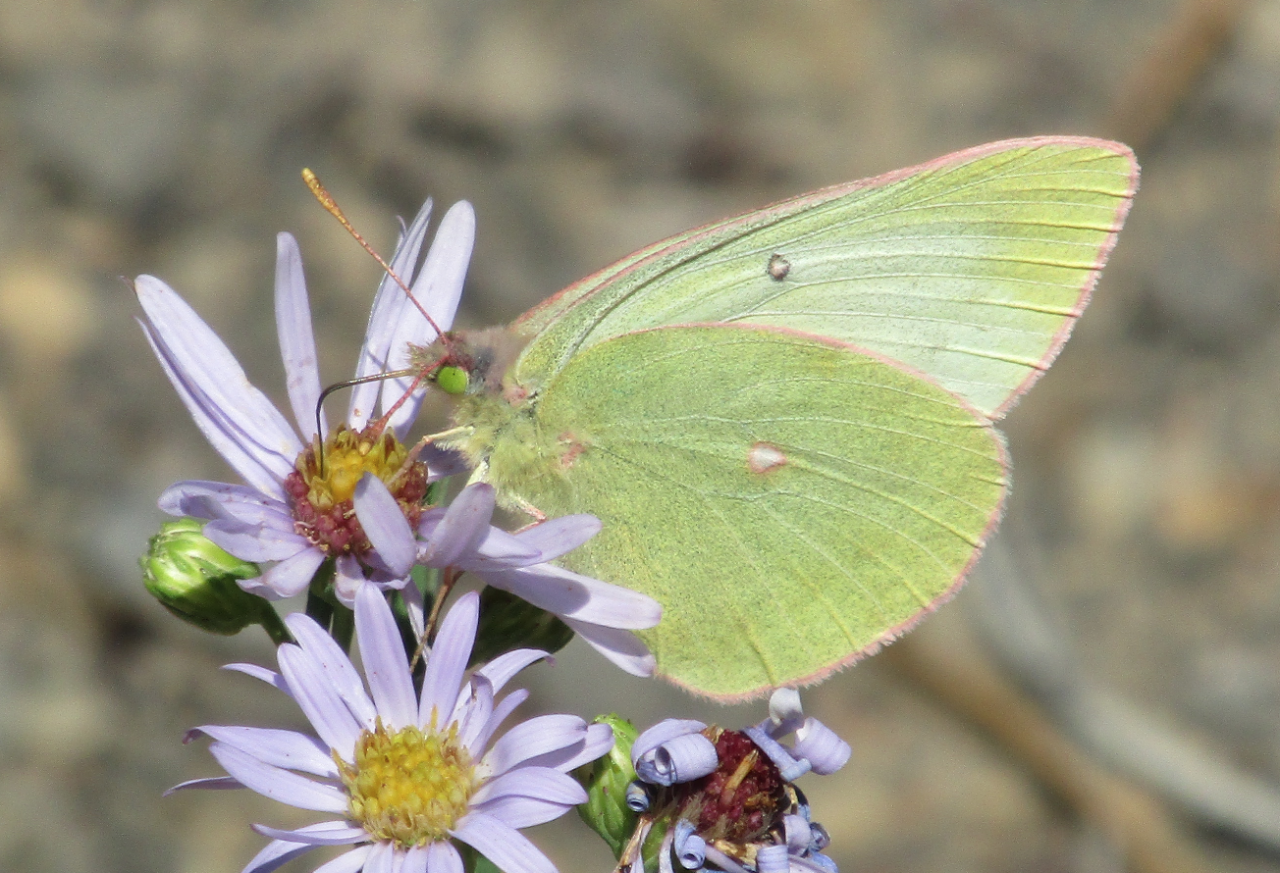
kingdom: Animalia
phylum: Arthropoda
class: Insecta
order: Lepidoptera
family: Pieridae
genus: Colias
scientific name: Colias gigantea
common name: Giant Sulphur
